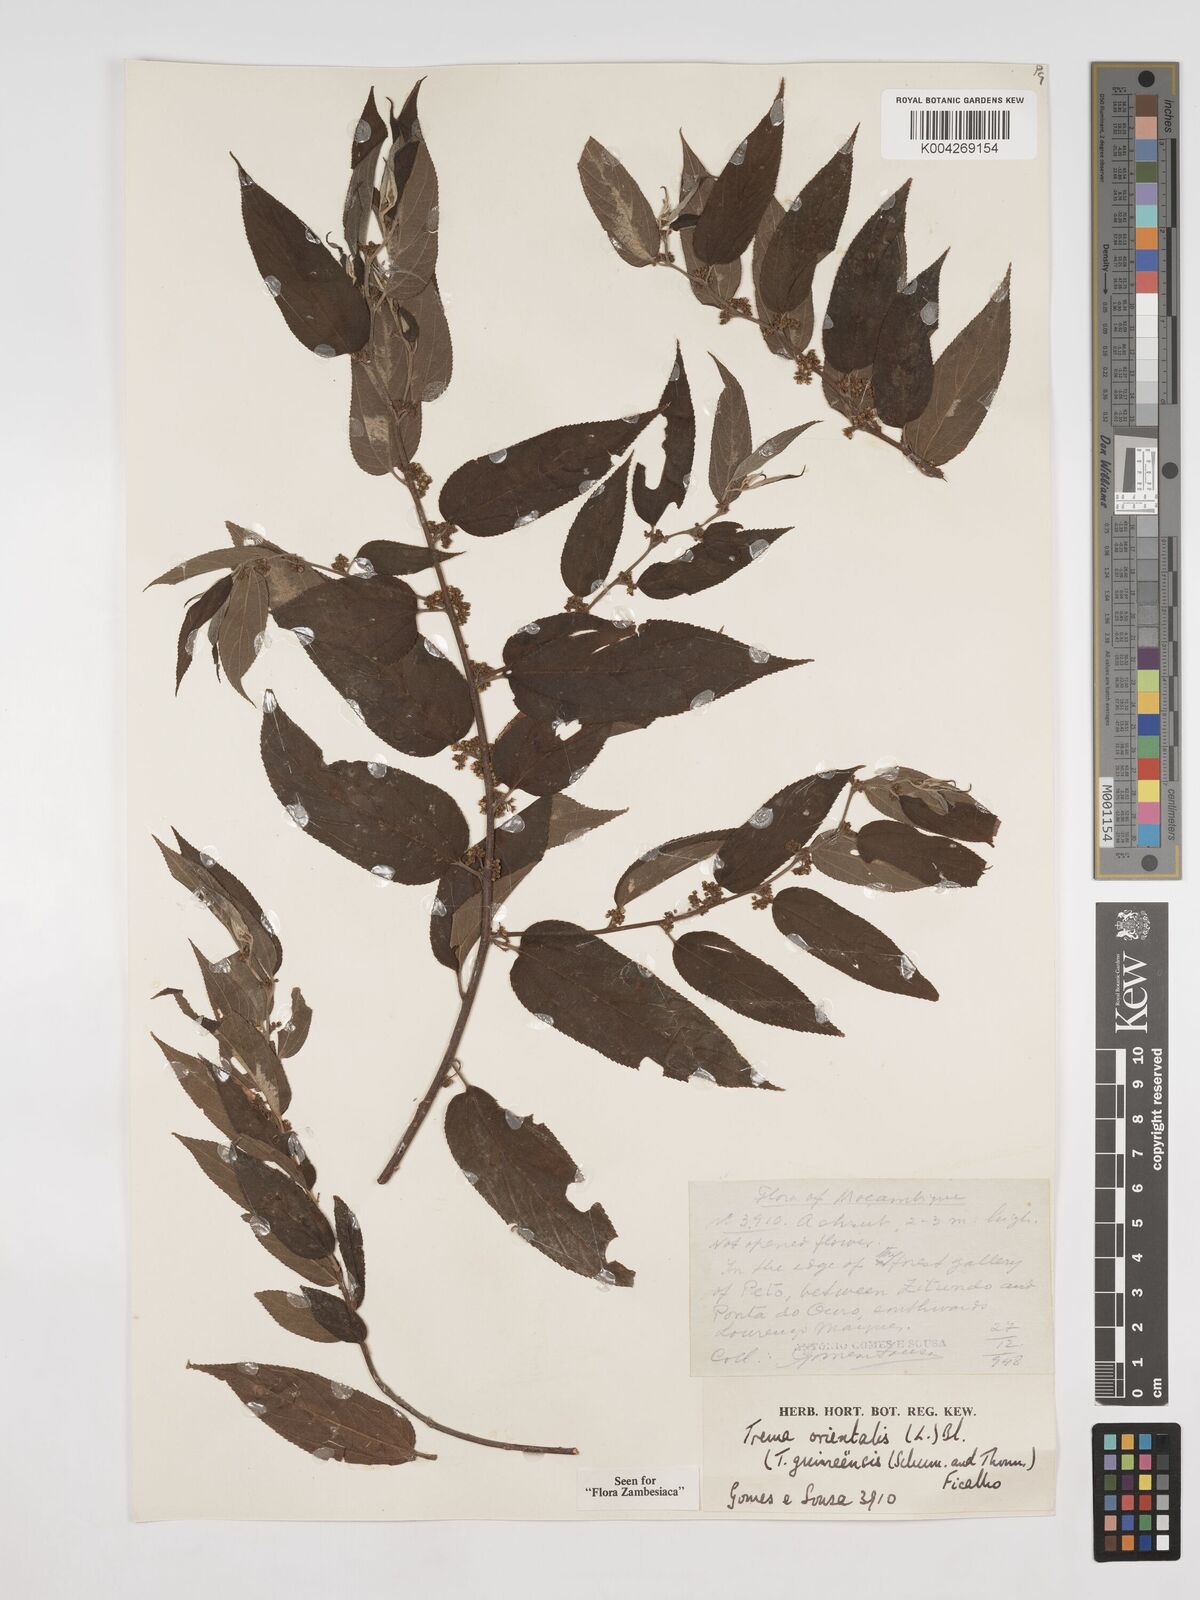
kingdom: Plantae
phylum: Tracheophyta
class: Magnoliopsida
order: Rosales
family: Cannabaceae
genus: Trema
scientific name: Trema orientale
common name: Indian charcoal tree
